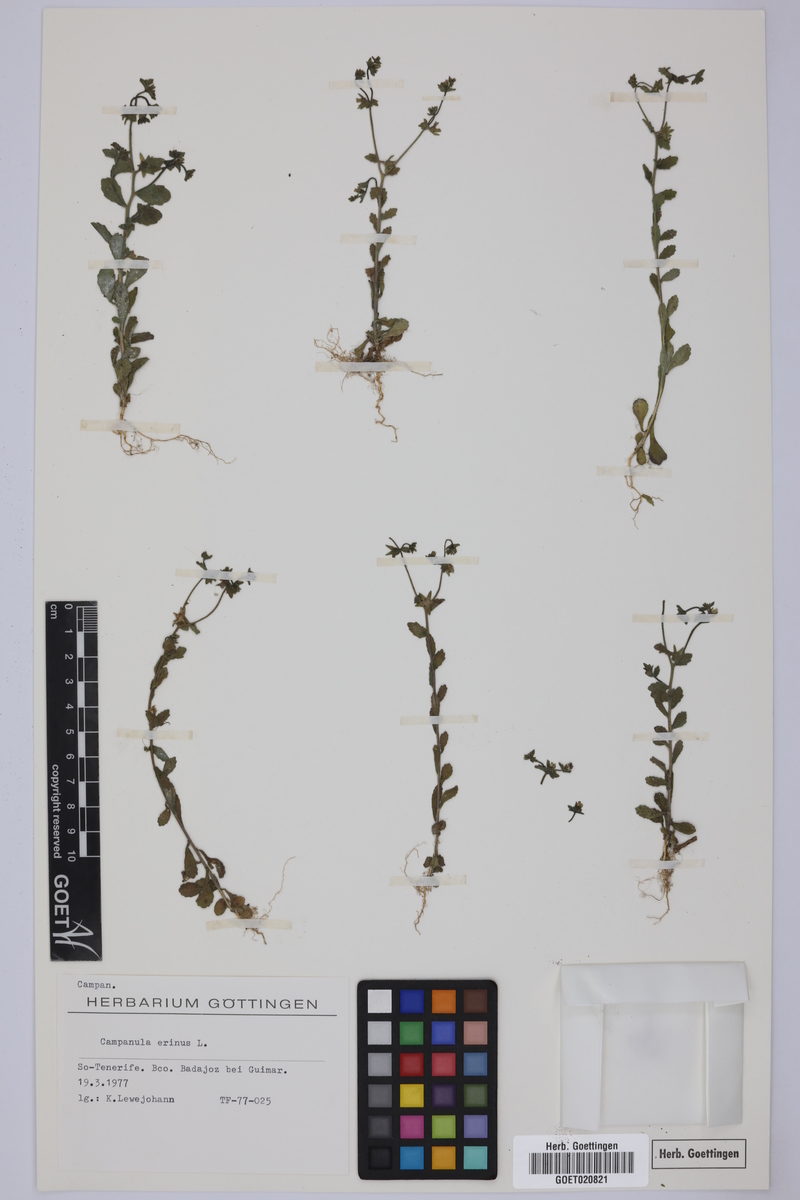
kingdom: Plantae
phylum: Tracheophyta
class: Magnoliopsida
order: Asterales
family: Campanulaceae
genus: Campanula
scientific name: Campanula erinus
